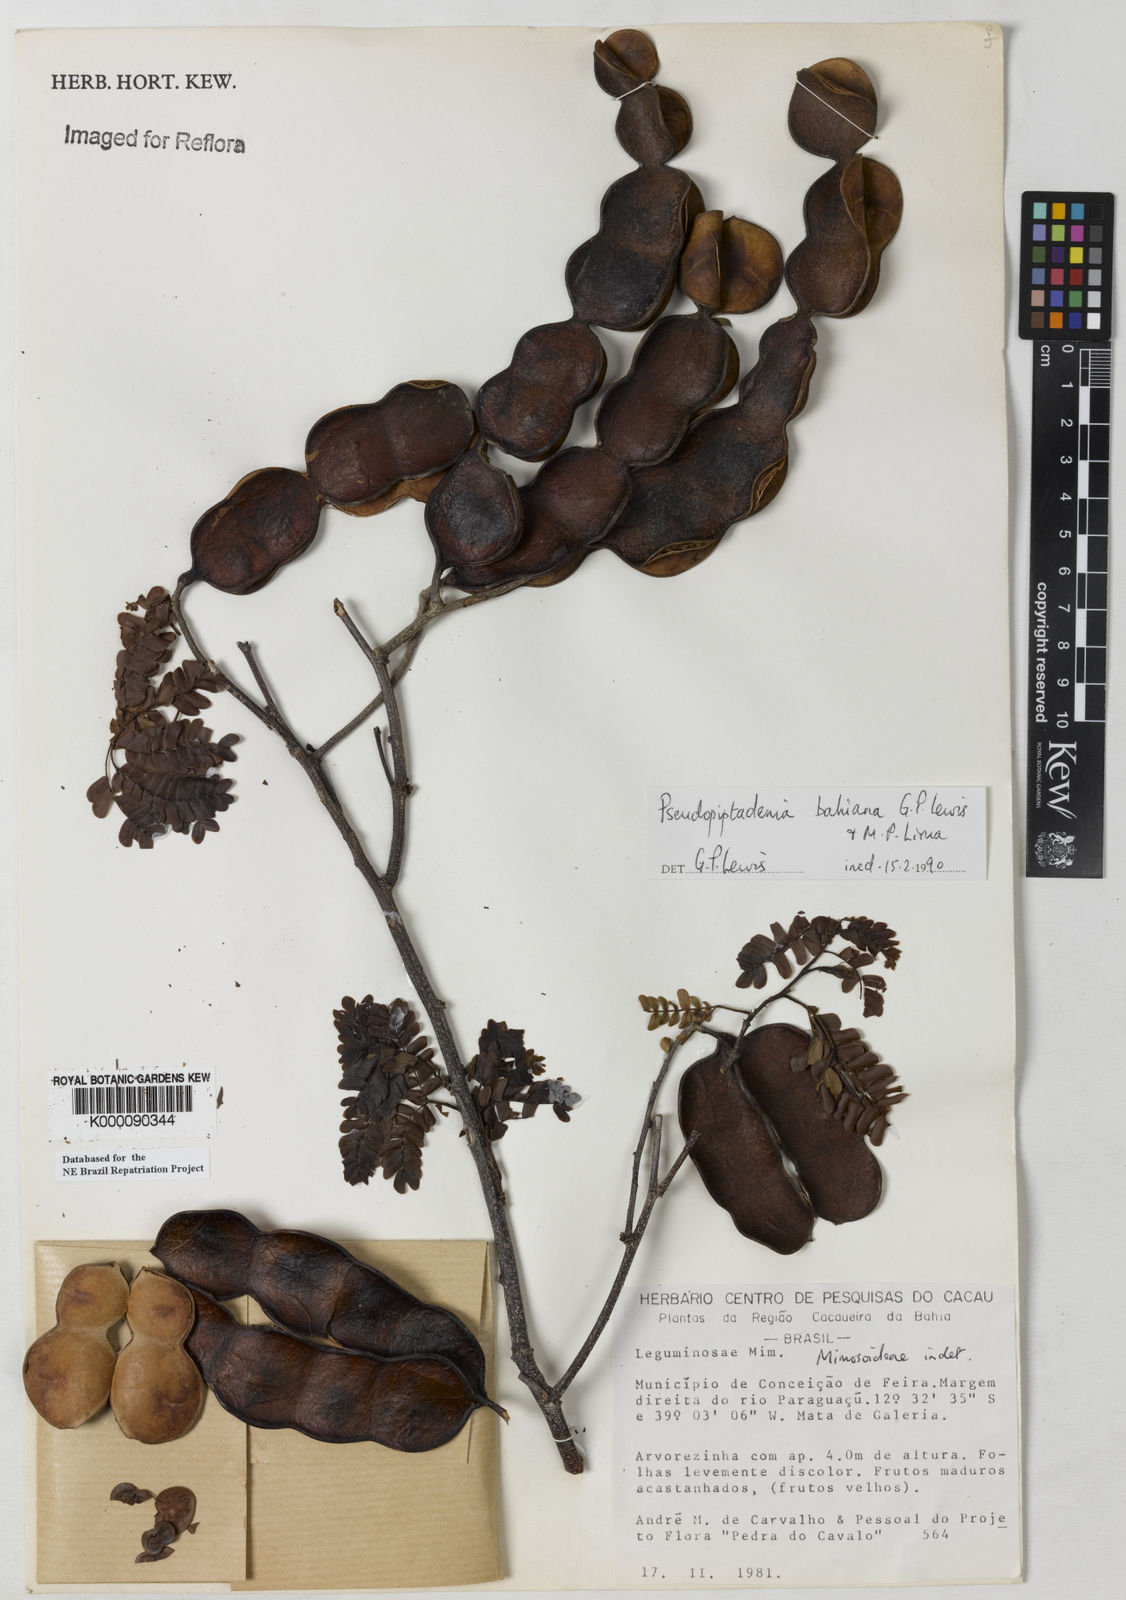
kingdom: Plantae
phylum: Tracheophyta
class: Magnoliopsida
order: Fabales
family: Fabaceae
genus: Pseudopiptadenia
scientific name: Pseudopiptadenia bahiana
